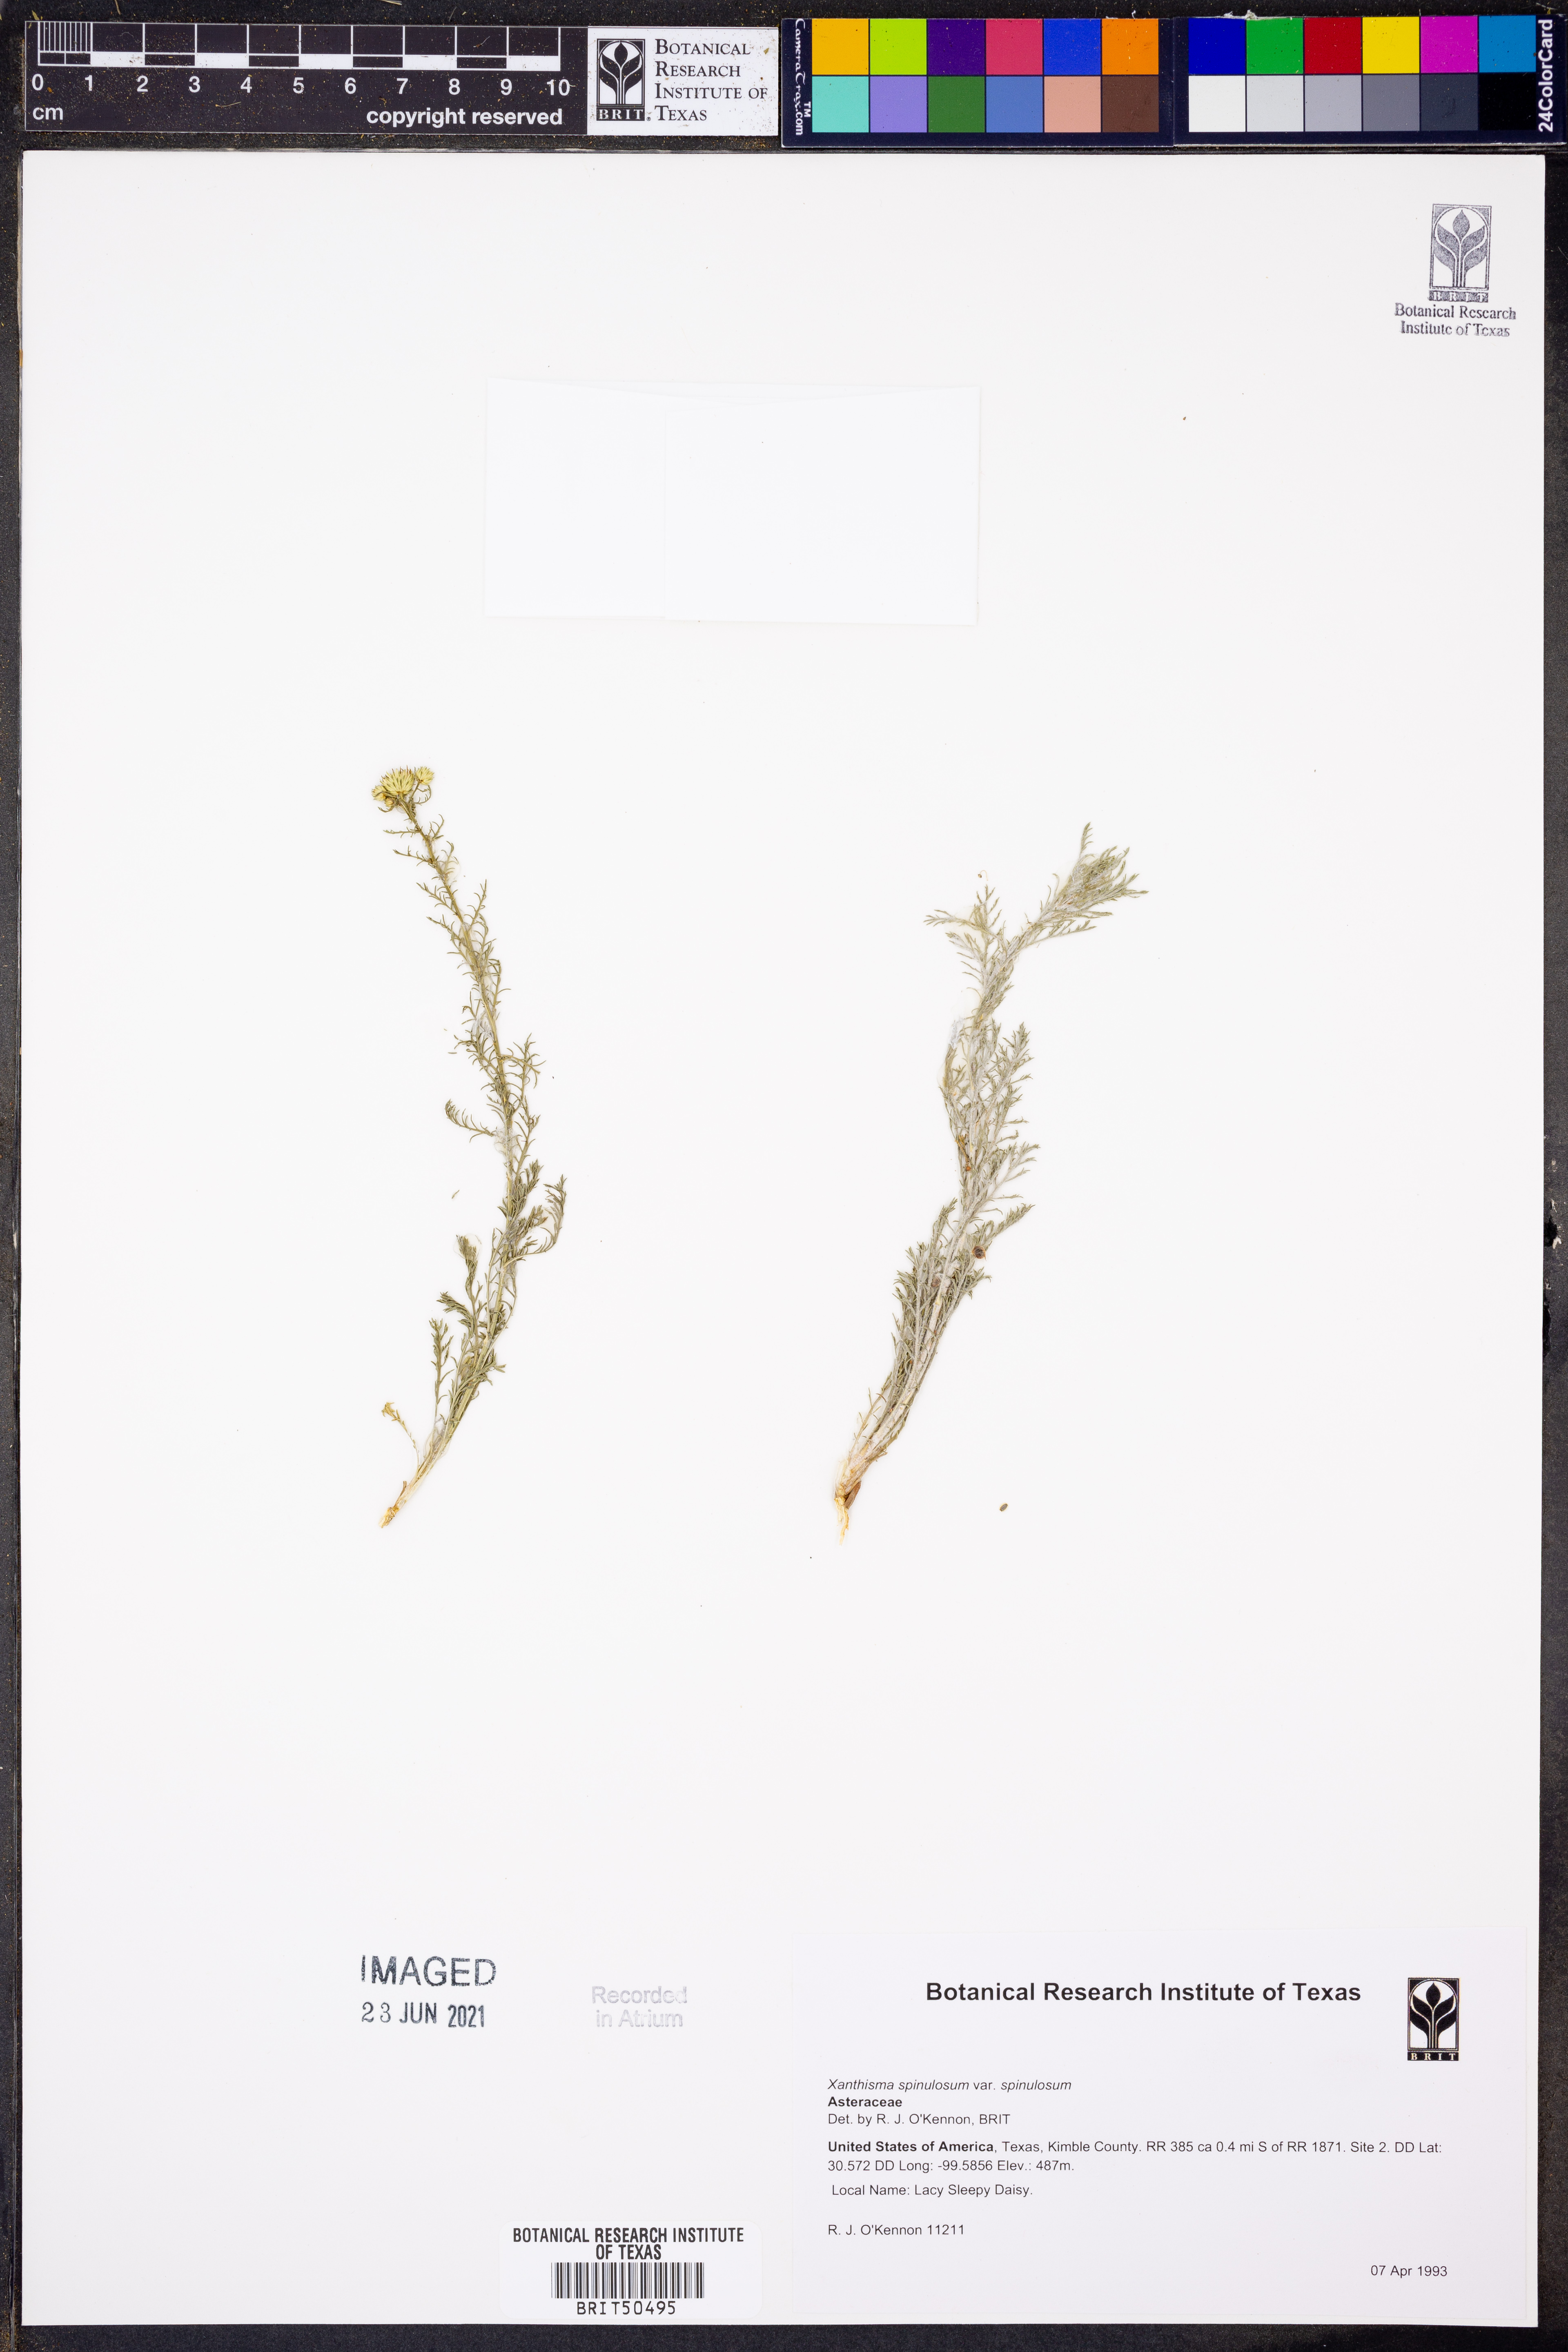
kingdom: Plantae
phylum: Tracheophyta
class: Magnoliopsida
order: Asterales
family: Asteraceae
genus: Xanthisma
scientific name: Xanthisma spinulosum
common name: Spiny goldenweed
